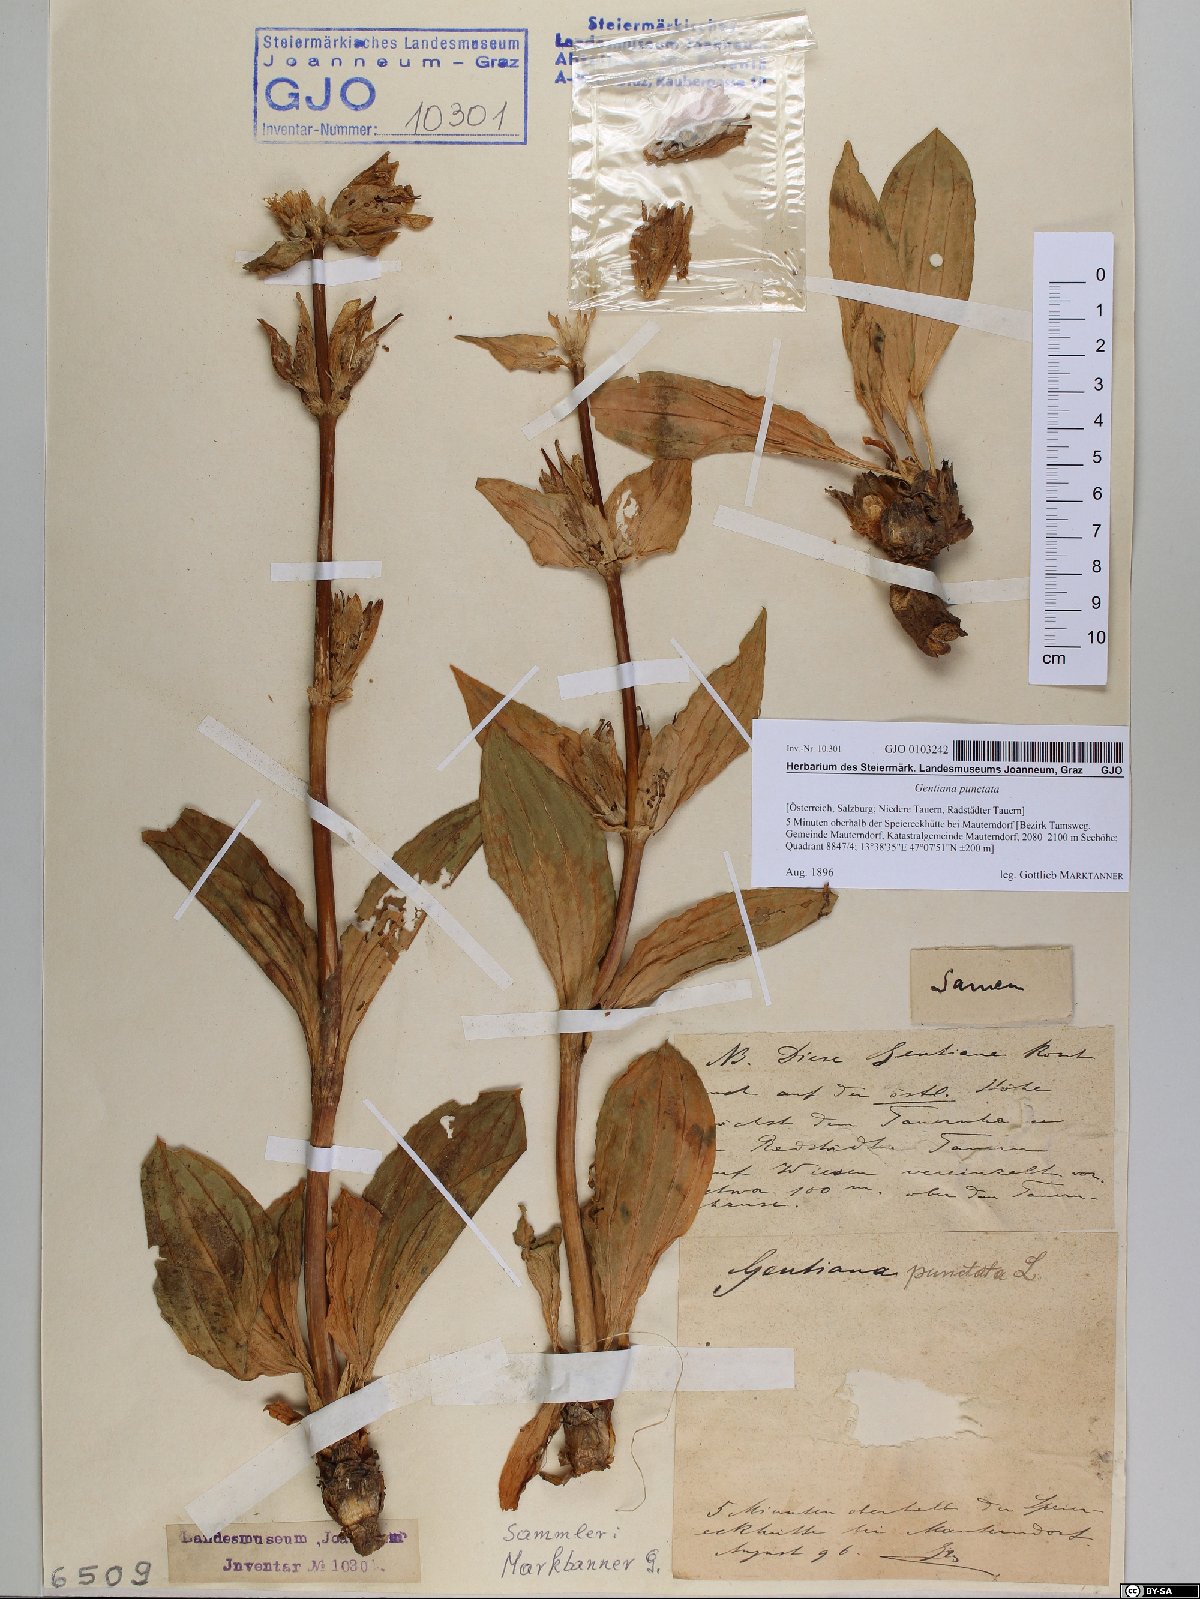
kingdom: Plantae
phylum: Tracheophyta
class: Magnoliopsida
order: Gentianales
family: Gentianaceae
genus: Gentiana
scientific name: Gentiana punctata
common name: Spotted gentian
